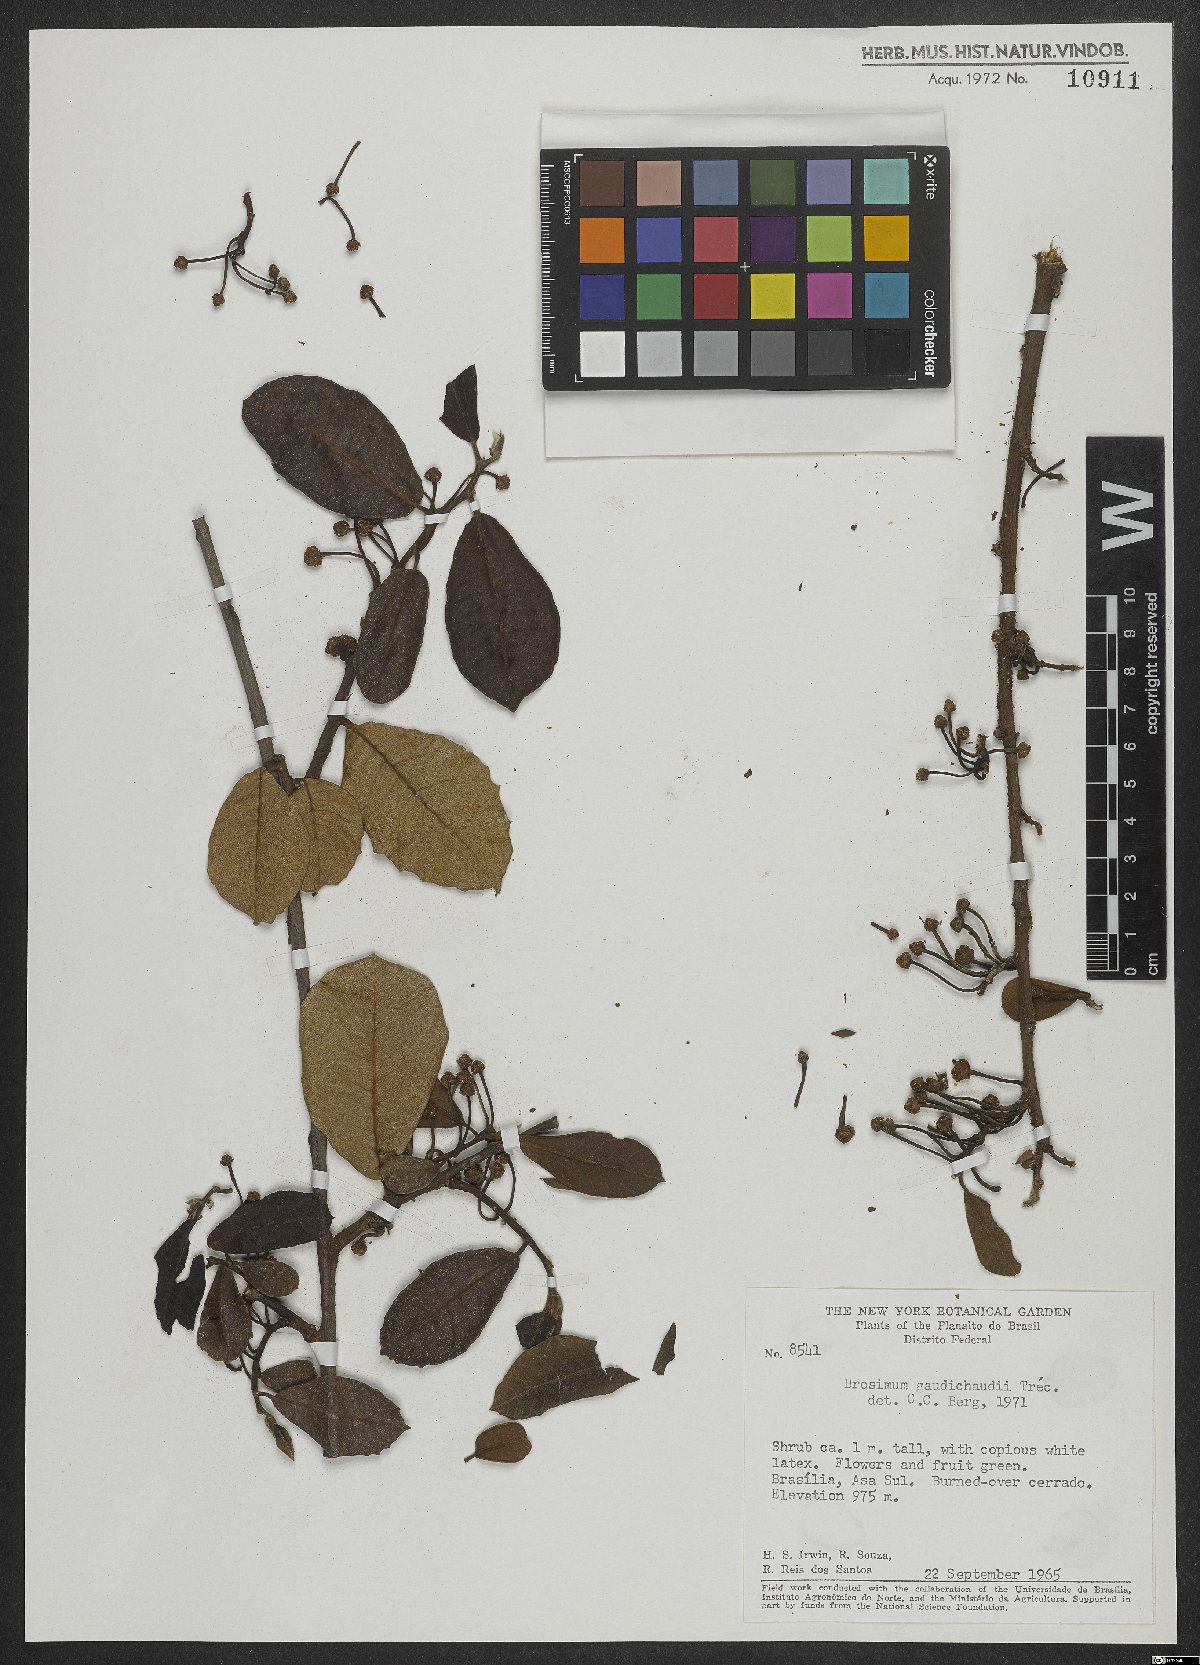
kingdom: Plantae
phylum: Tracheophyta
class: Magnoliopsida
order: Rosales
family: Moraceae
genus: Brosimum
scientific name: Brosimum gaudichaudii
